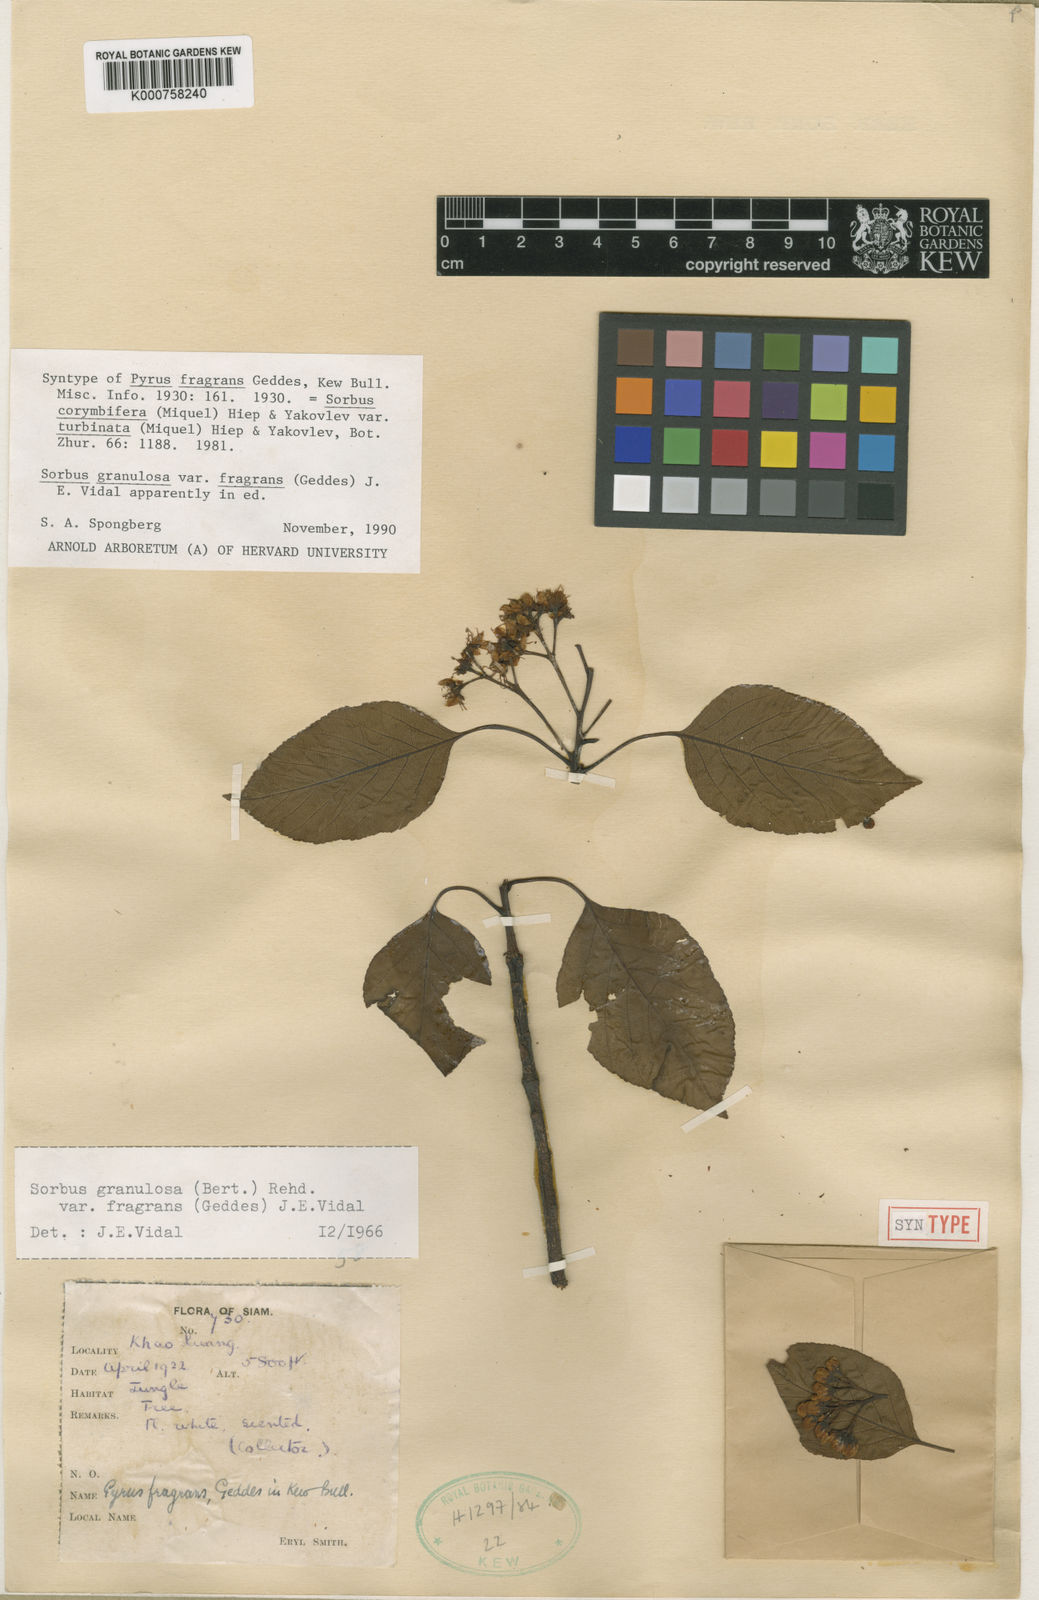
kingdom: Plantae
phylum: Tracheophyta
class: Magnoliopsida
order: Rosales
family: Rosaceae
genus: Sorbus
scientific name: Sorbus
